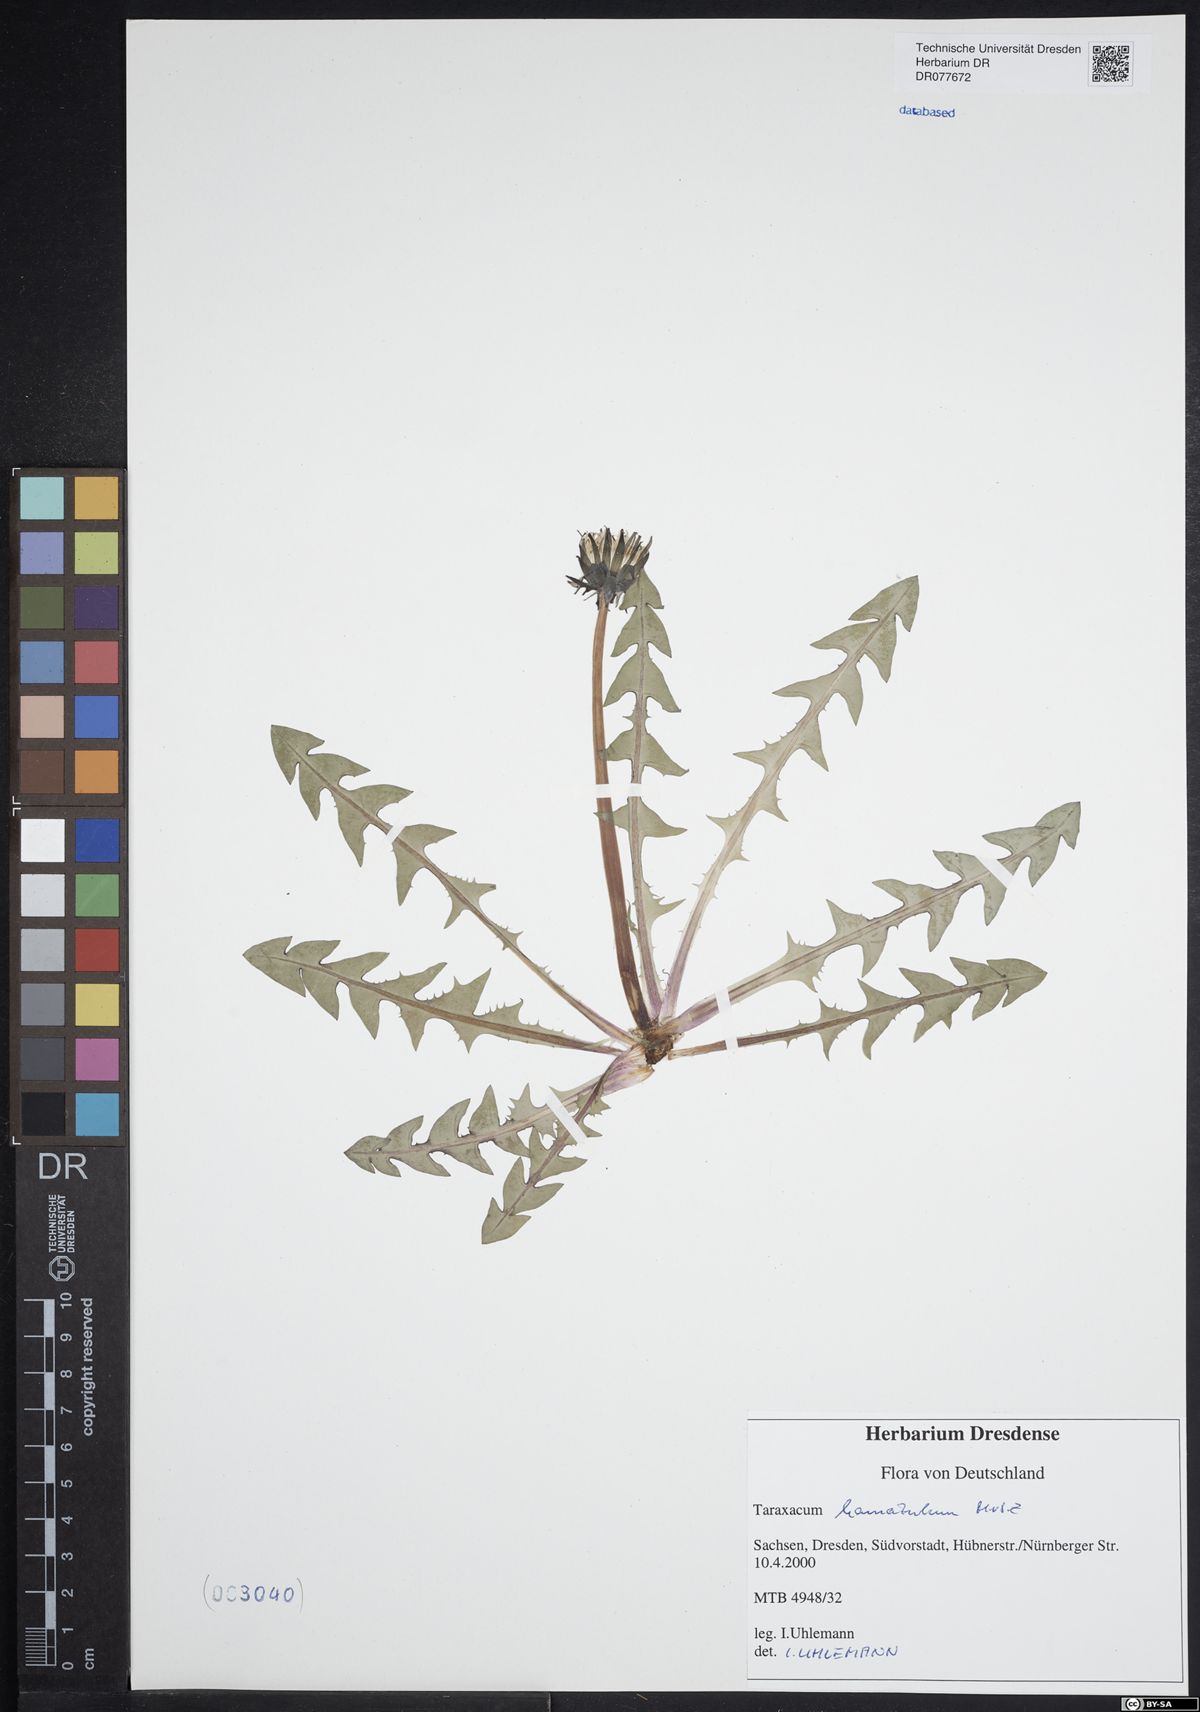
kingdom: Plantae
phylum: Tracheophyta
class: Magnoliopsida
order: Asterales
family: Asteraceae
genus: Taraxacum
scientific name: Taraxacum hamatulum
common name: Slender hook-lobed dandelion
